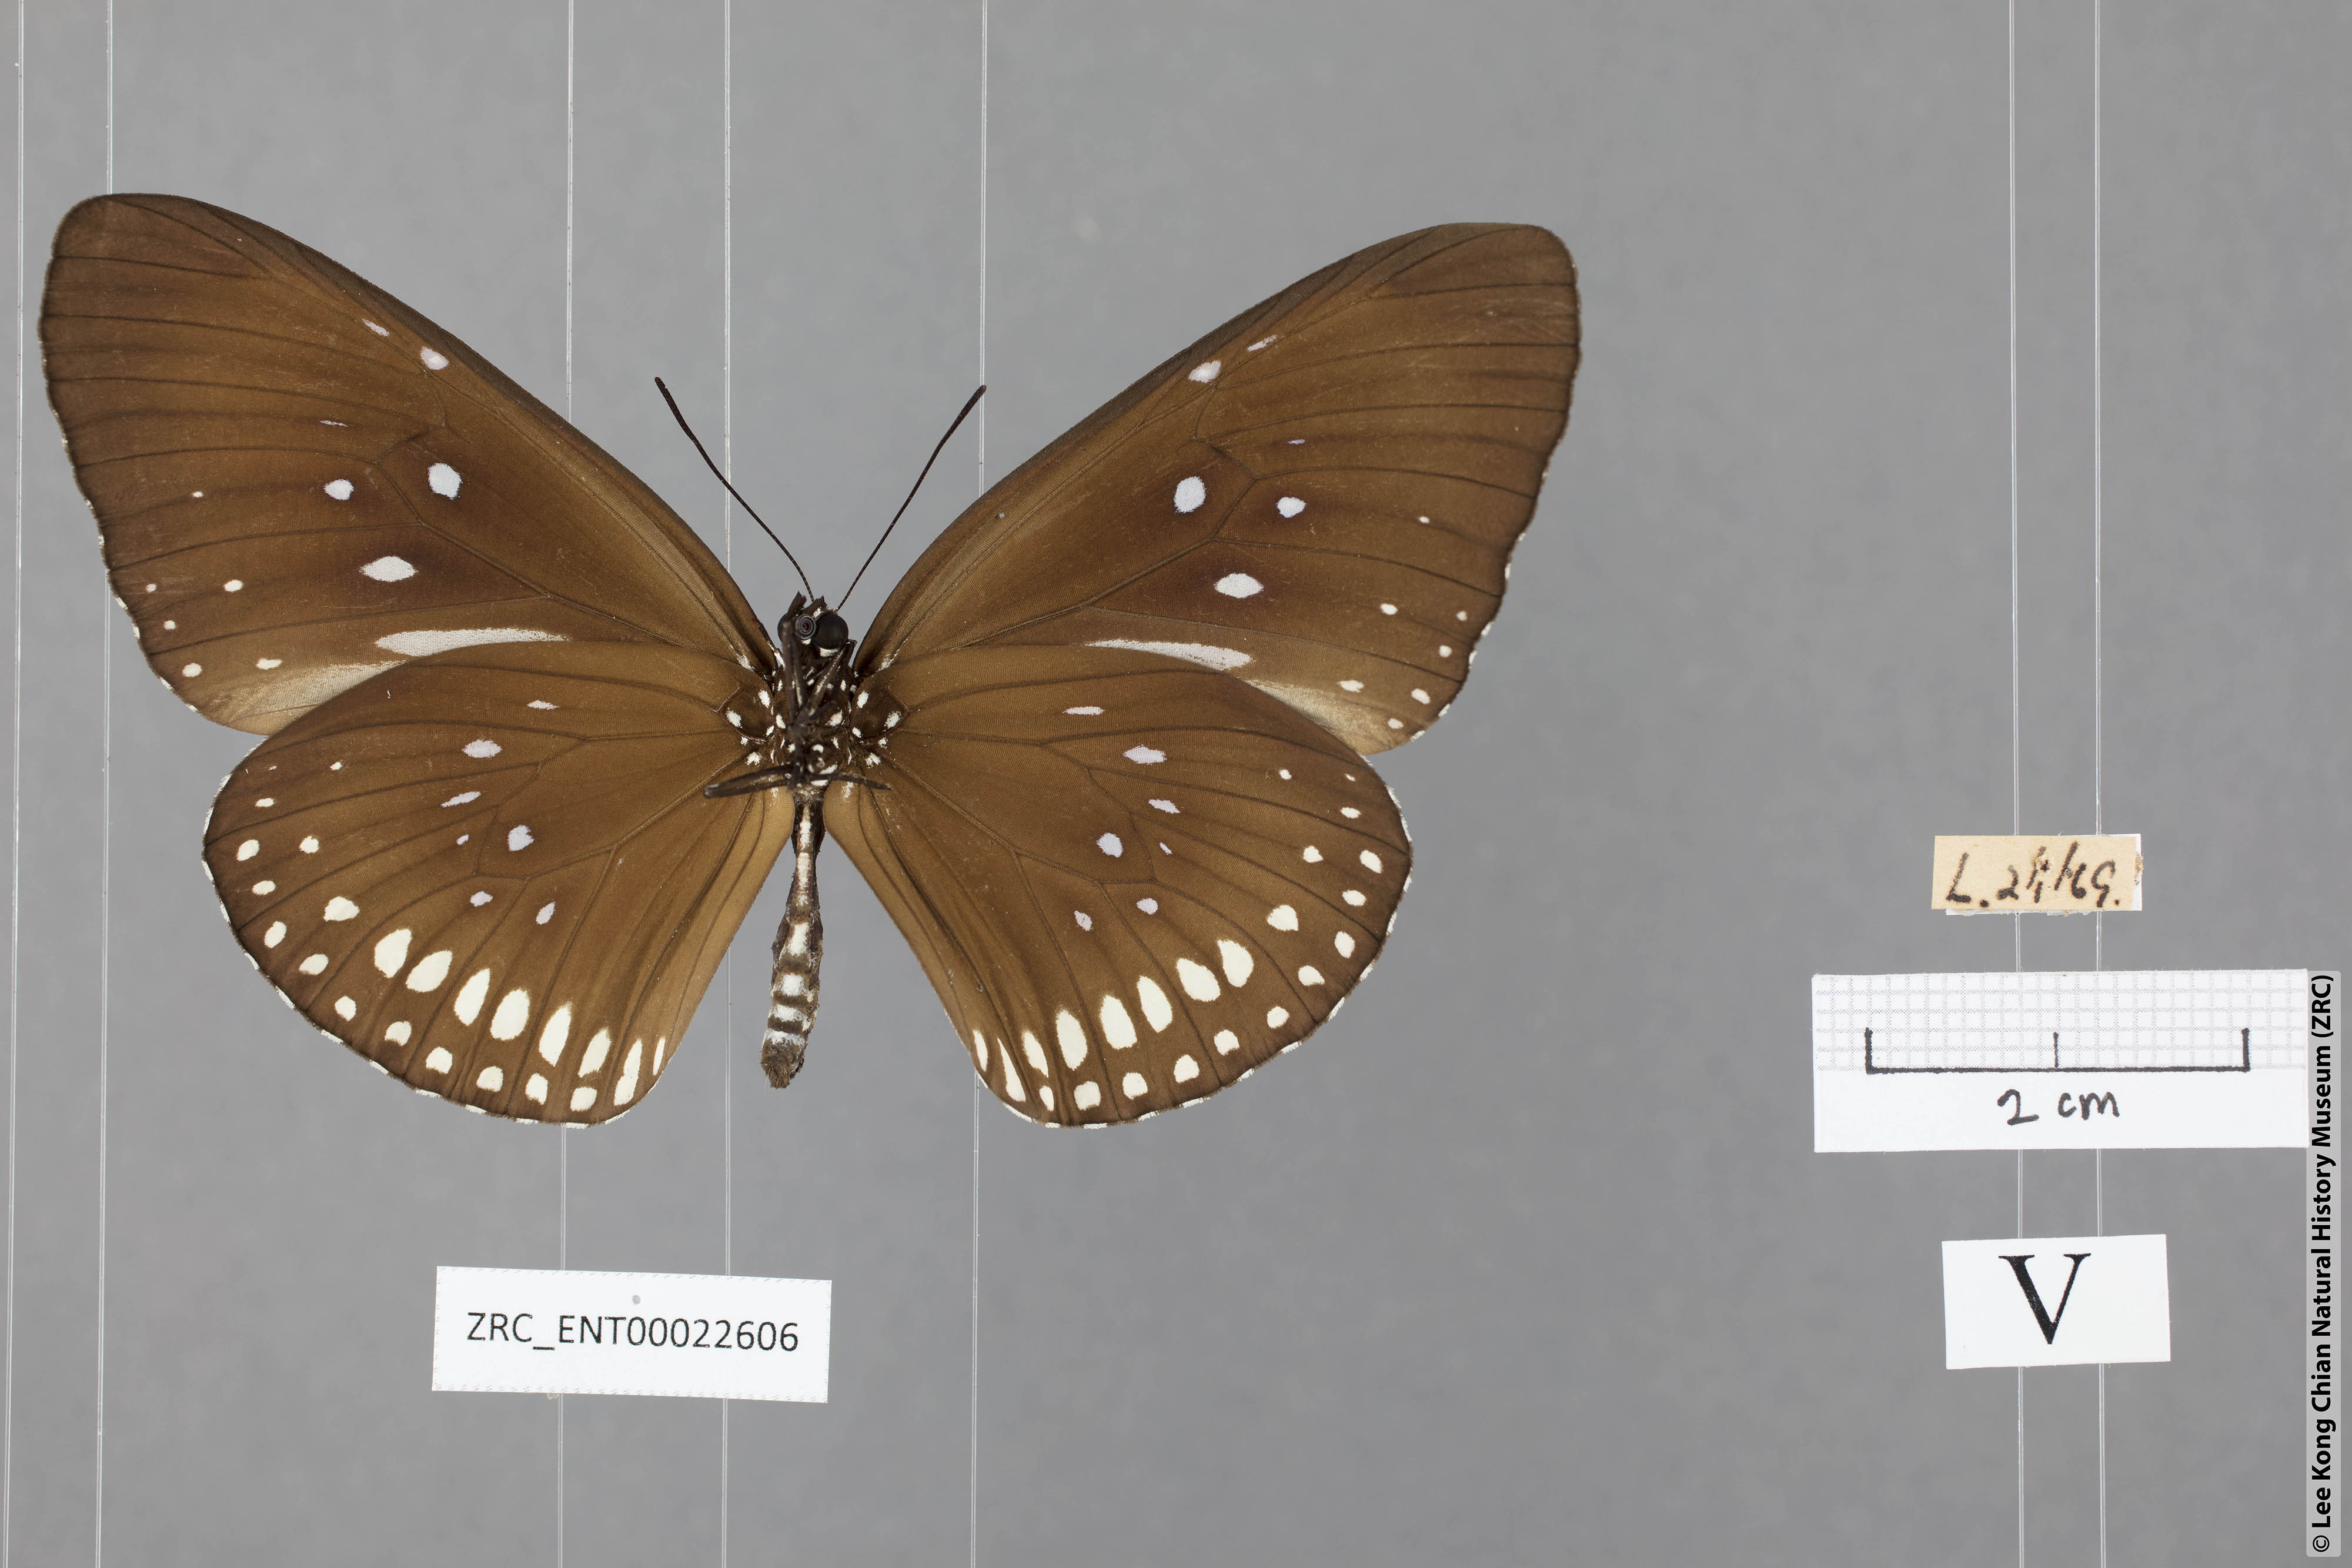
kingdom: Animalia
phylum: Arthropoda
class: Insecta
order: Lepidoptera
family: Nymphalidae
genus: Euploea
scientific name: Euploea modesta
